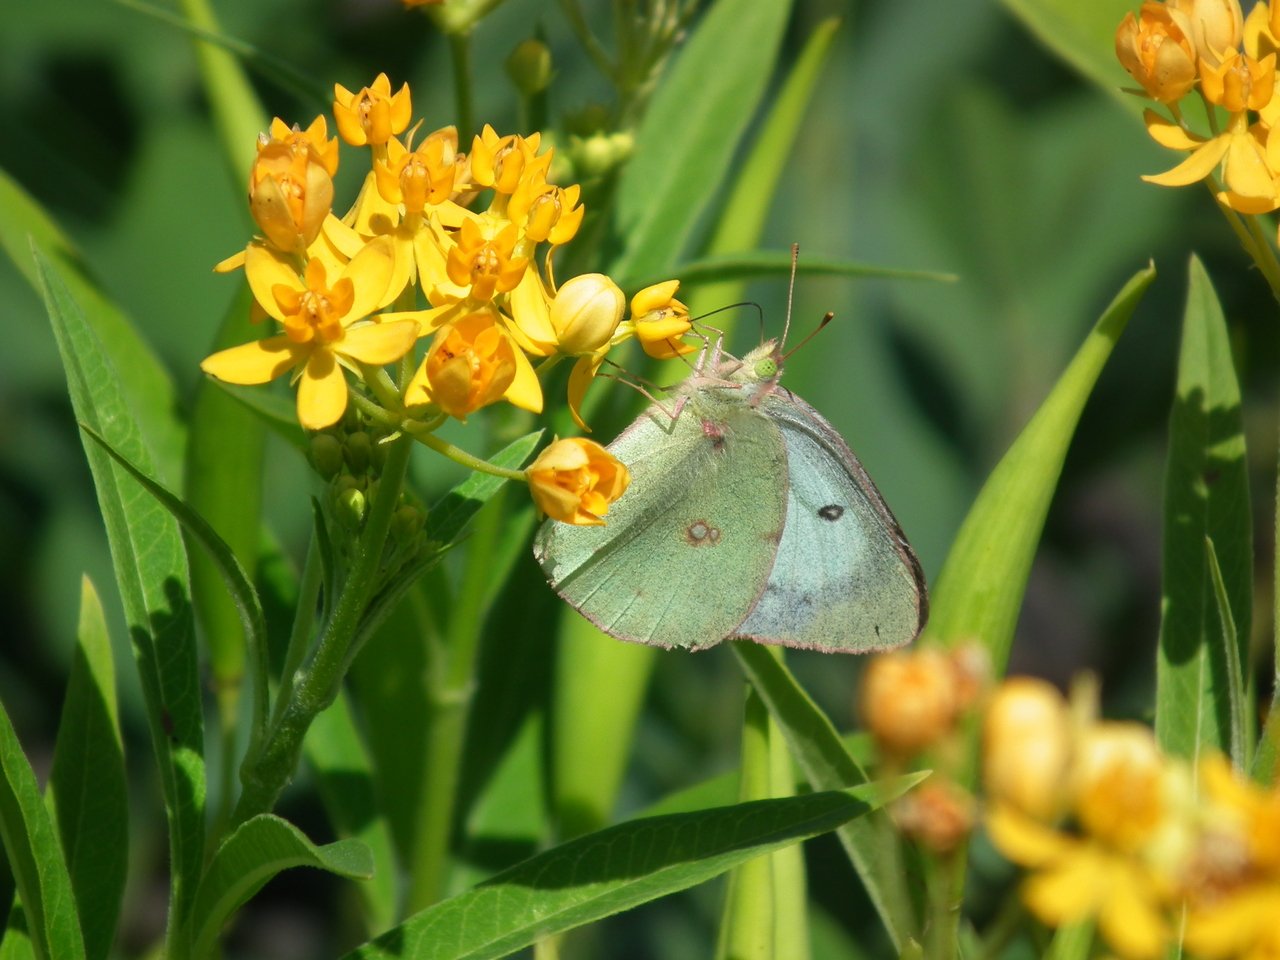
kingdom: Animalia
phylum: Arthropoda
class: Insecta
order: Lepidoptera
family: Pieridae
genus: Colias
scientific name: Colias philodice
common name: Clouded Sulphur
